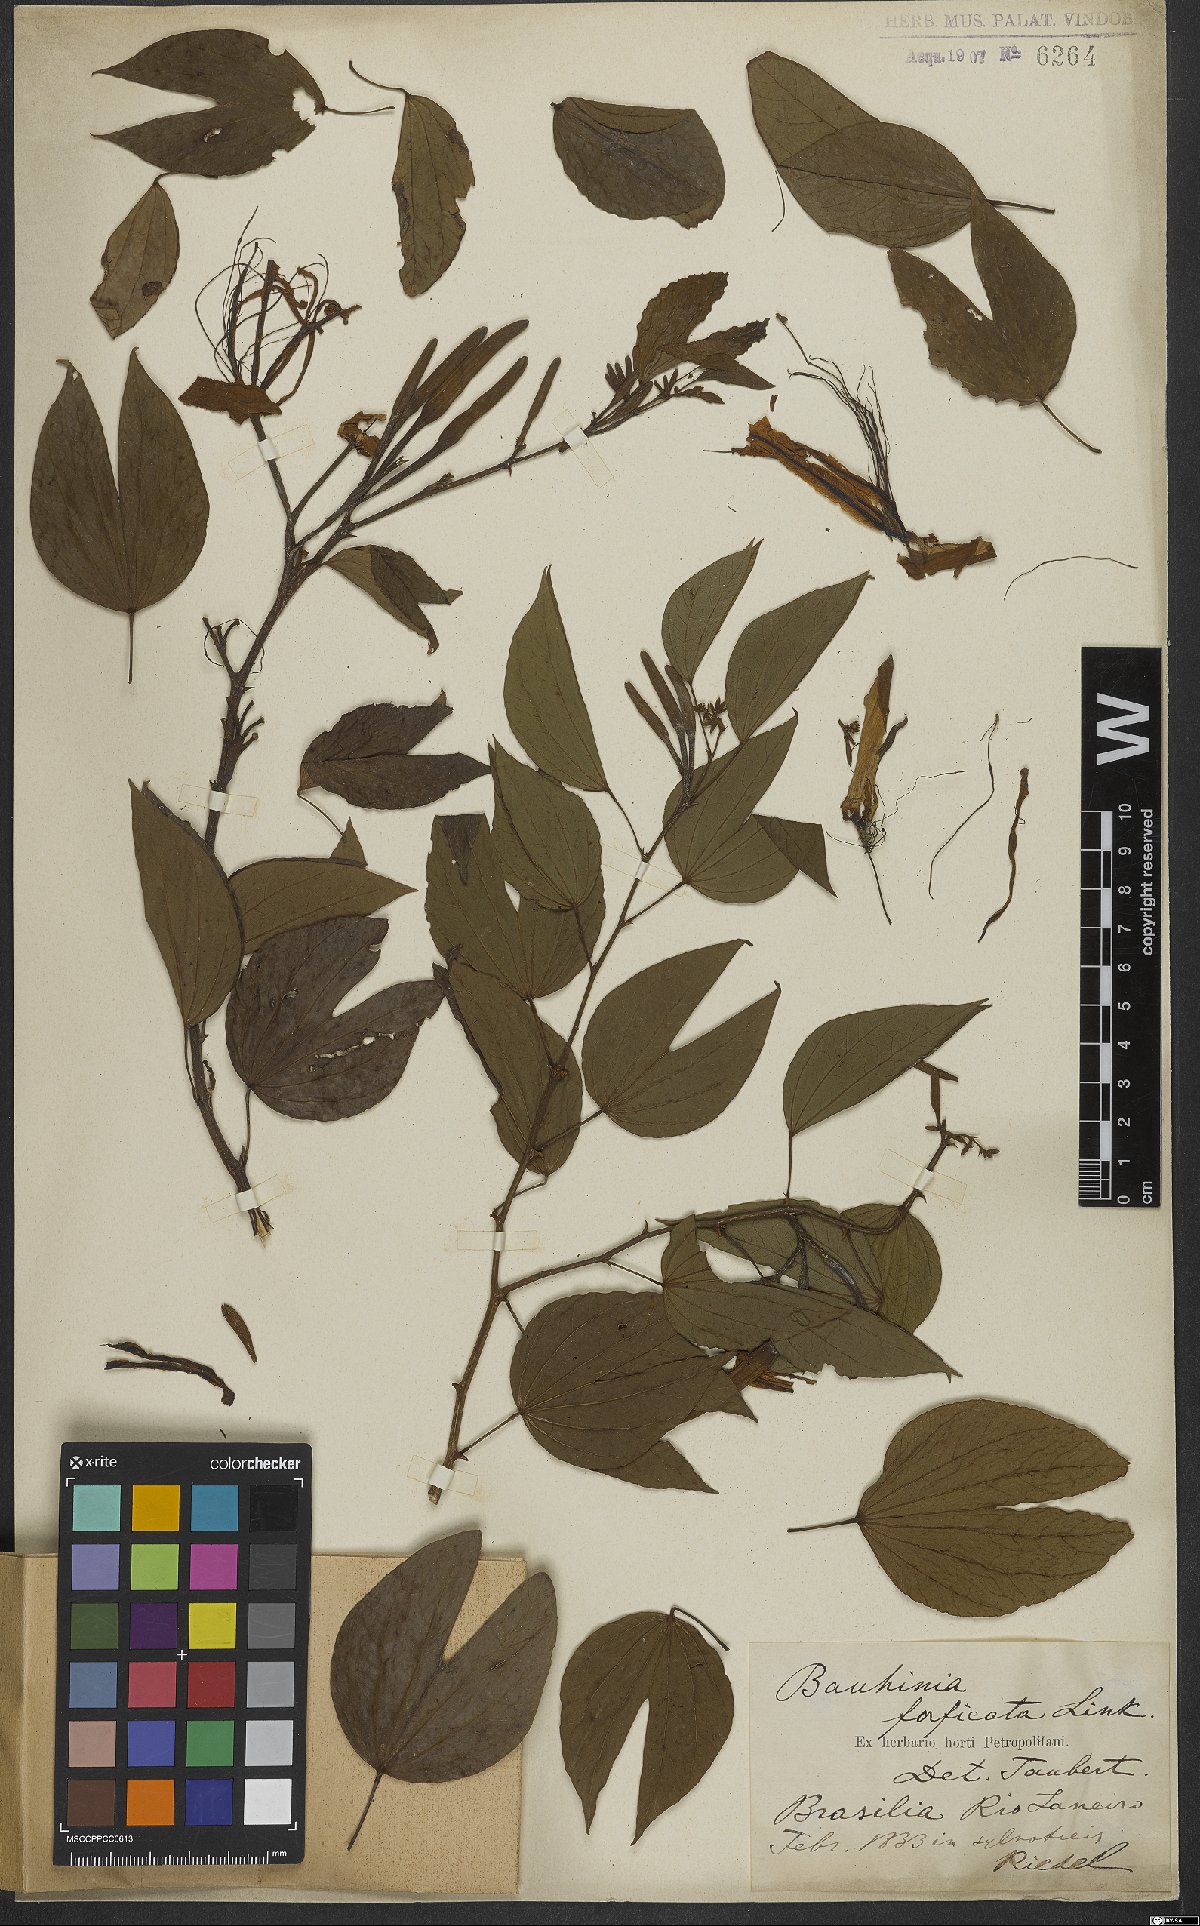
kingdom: Plantae
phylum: Tracheophyta
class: Magnoliopsida
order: Fabales
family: Fabaceae
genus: Bauhinia
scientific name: Bauhinia forficata
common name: Orchid tree
